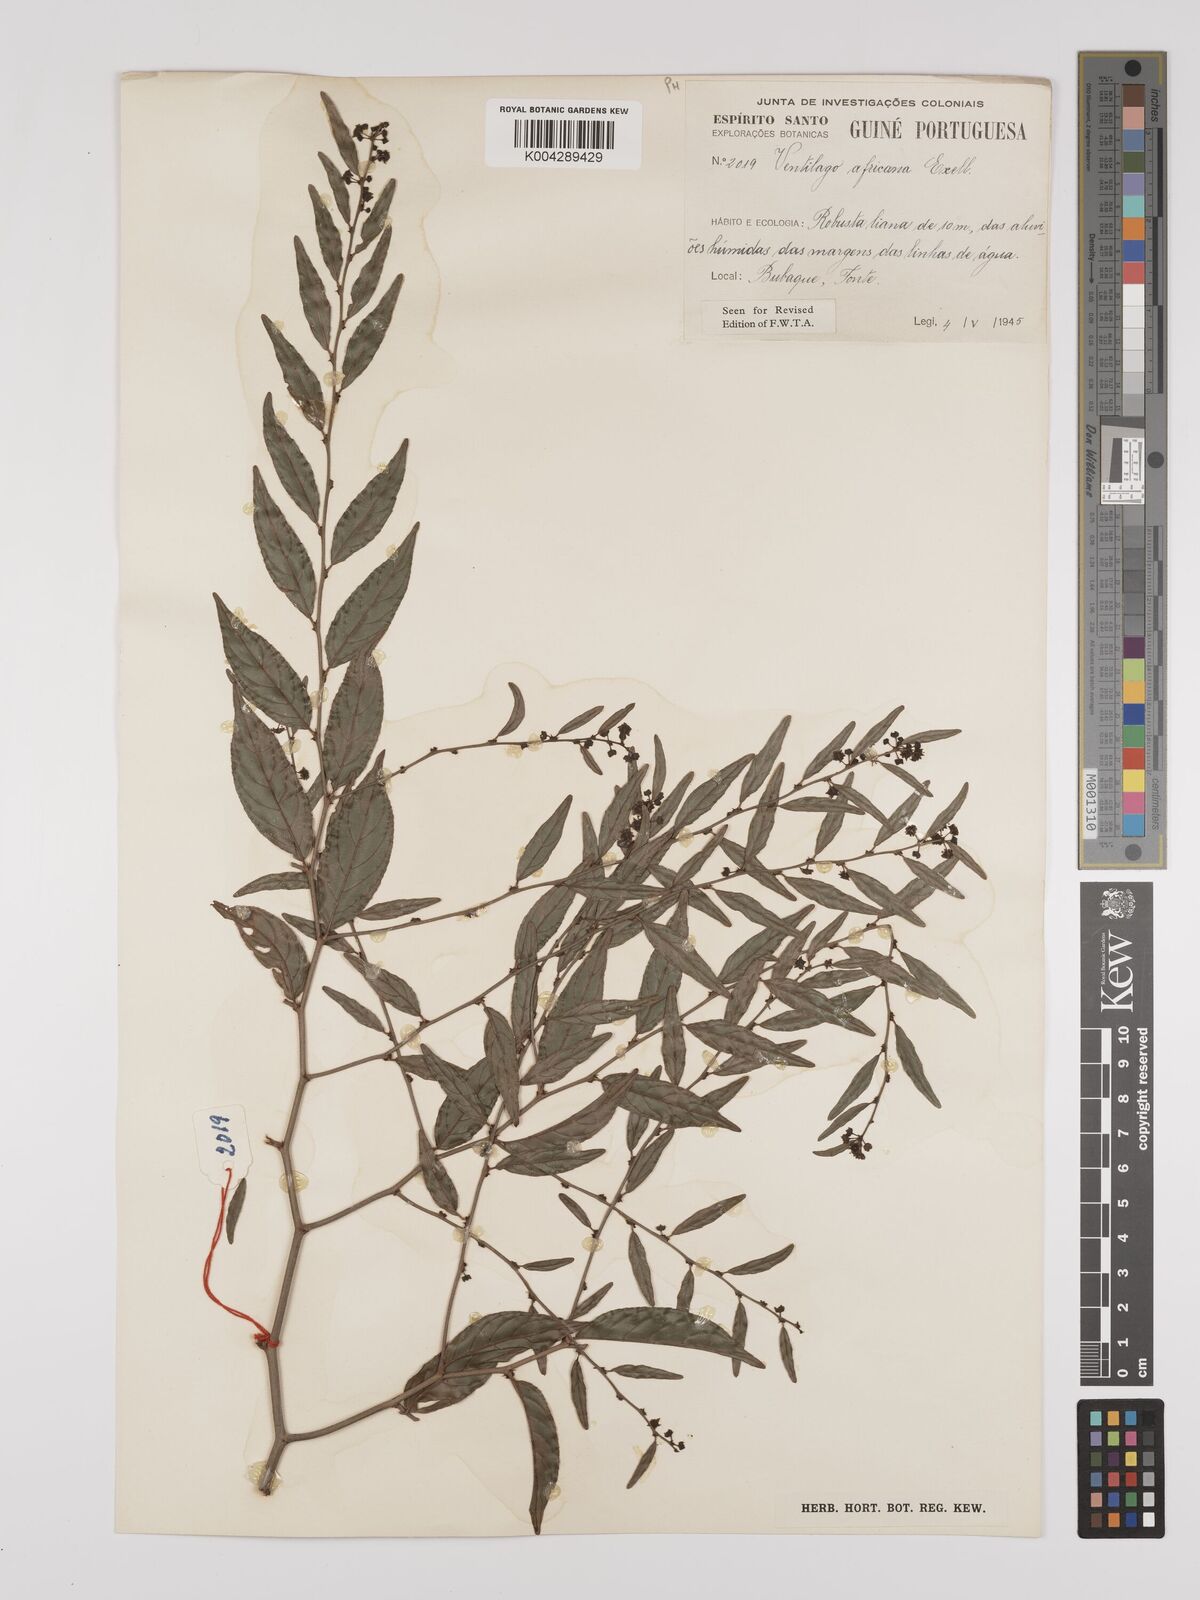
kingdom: Plantae
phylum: Tracheophyta
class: Magnoliopsida
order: Rosales
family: Rhamnaceae
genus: Ventilago
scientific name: Ventilago africana
